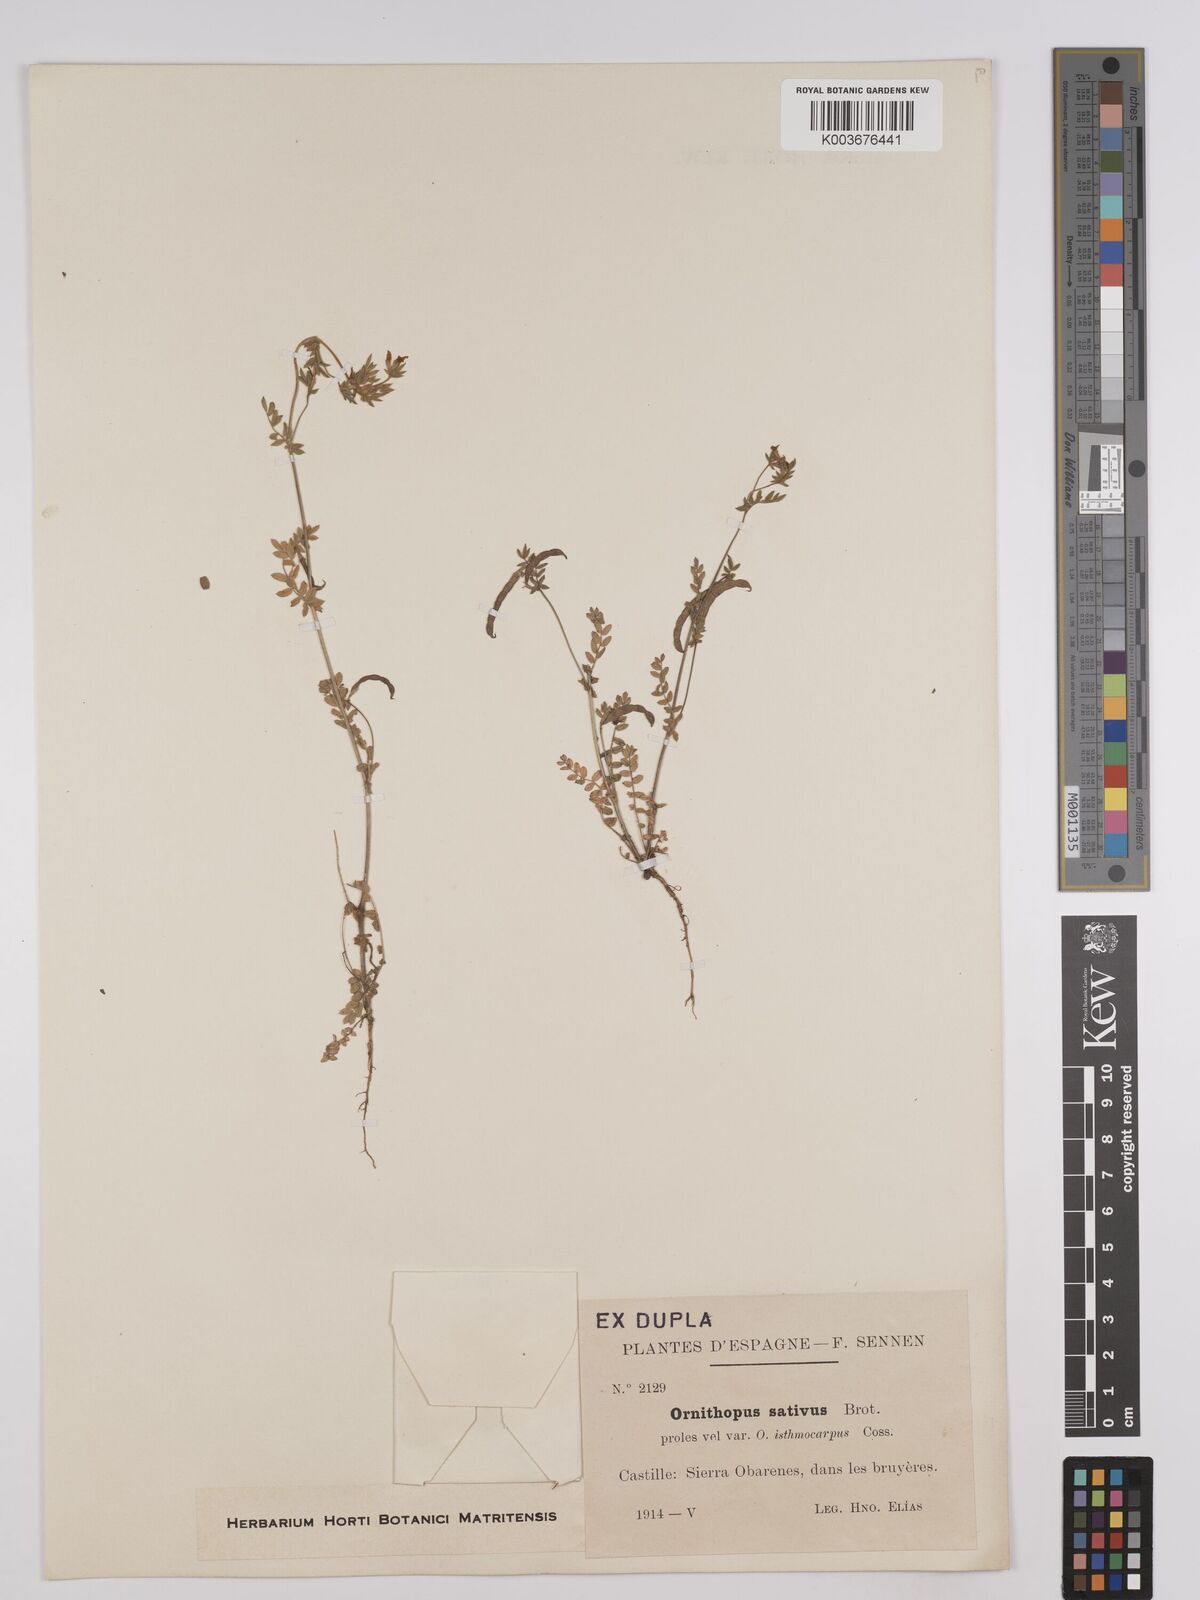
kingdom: Plantae
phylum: Tracheophyta
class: Magnoliopsida
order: Fabales
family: Fabaceae
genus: Ornithopus
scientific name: Ornithopus sativus
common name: Serradella
